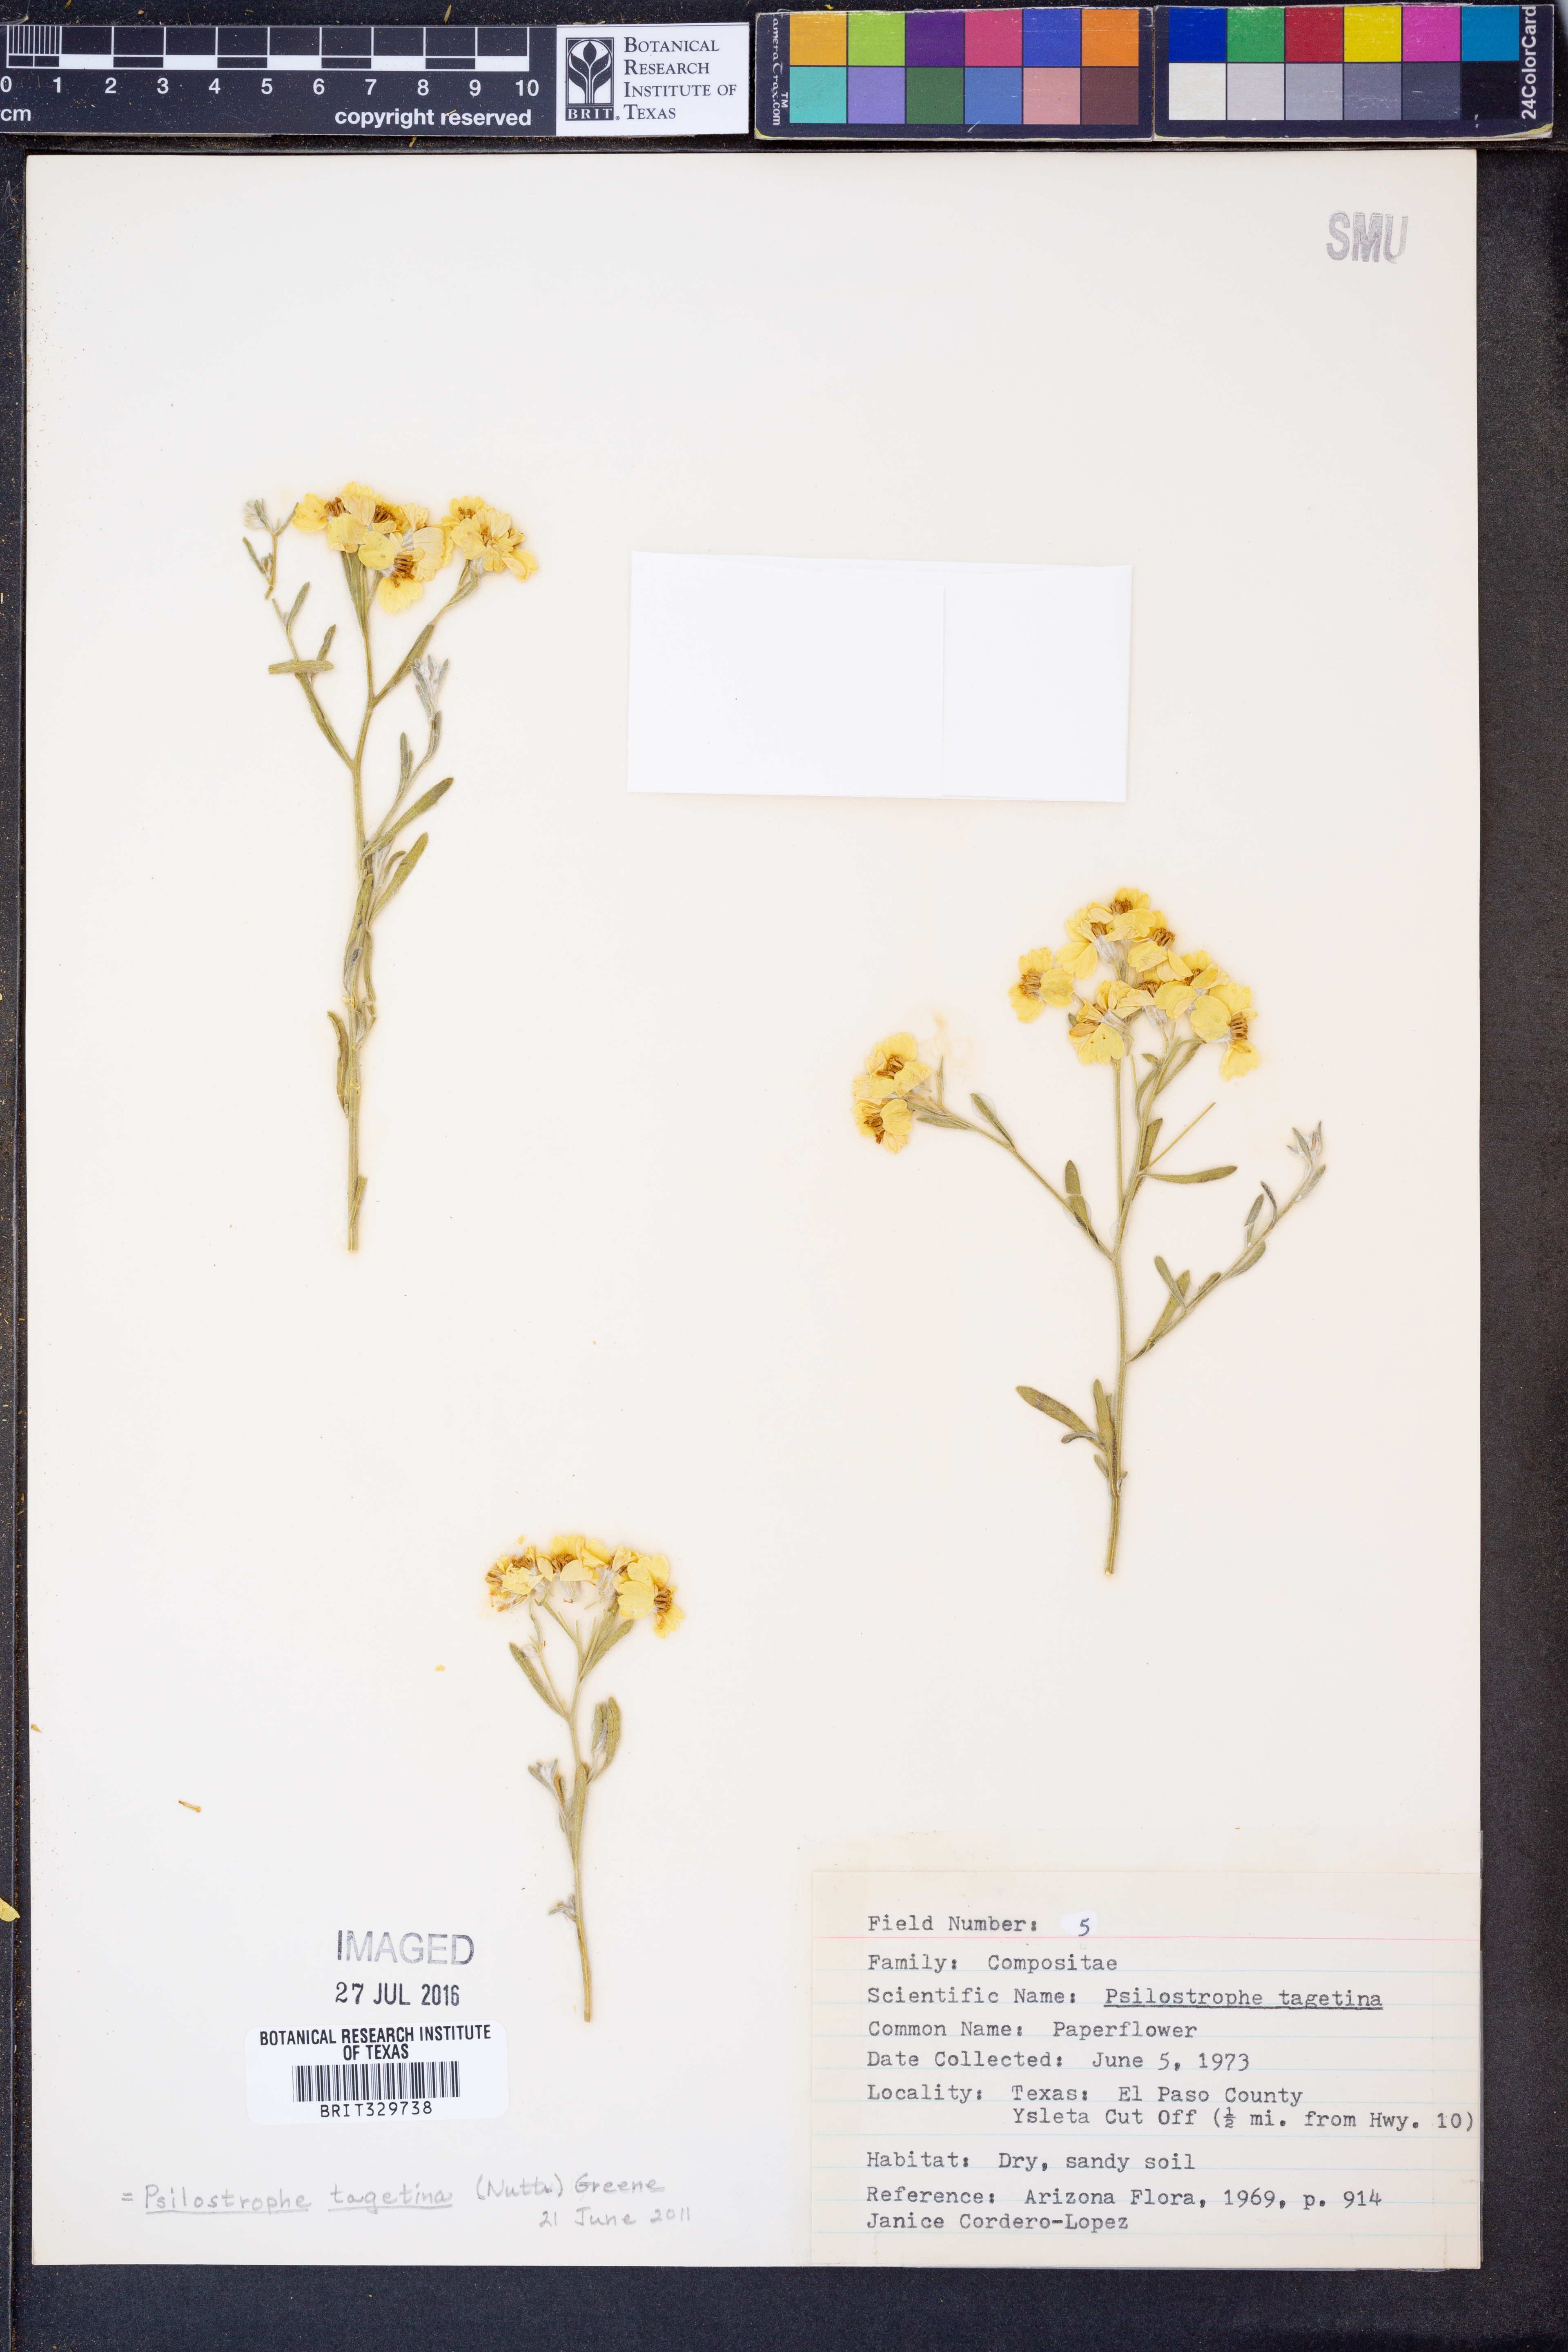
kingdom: Plantae
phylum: Tracheophyta
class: Magnoliopsida
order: Asterales
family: Asteraceae
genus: Psilostrophe
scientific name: Psilostrophe tagetina
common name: Marigold paper-flower
